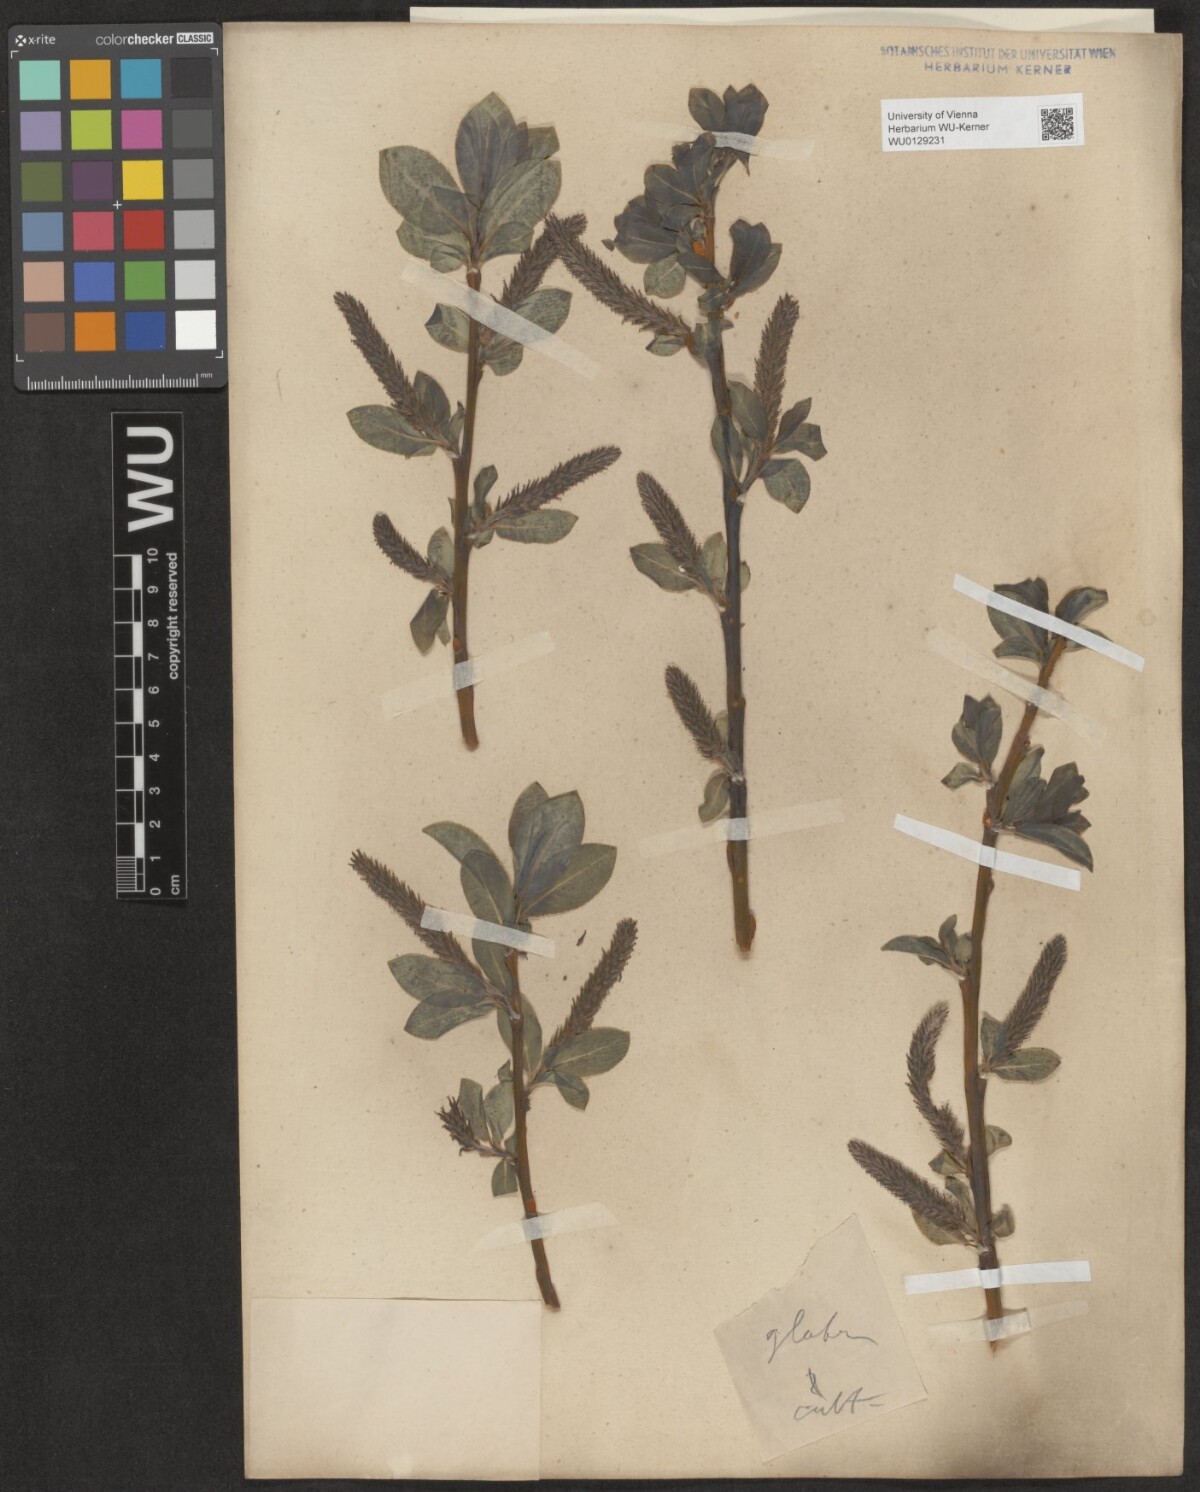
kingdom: Plantae
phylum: Tracheophyta
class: Magnoliopsida
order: Malpighiales
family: Salicaceae
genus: Salix
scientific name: Salix glabra
